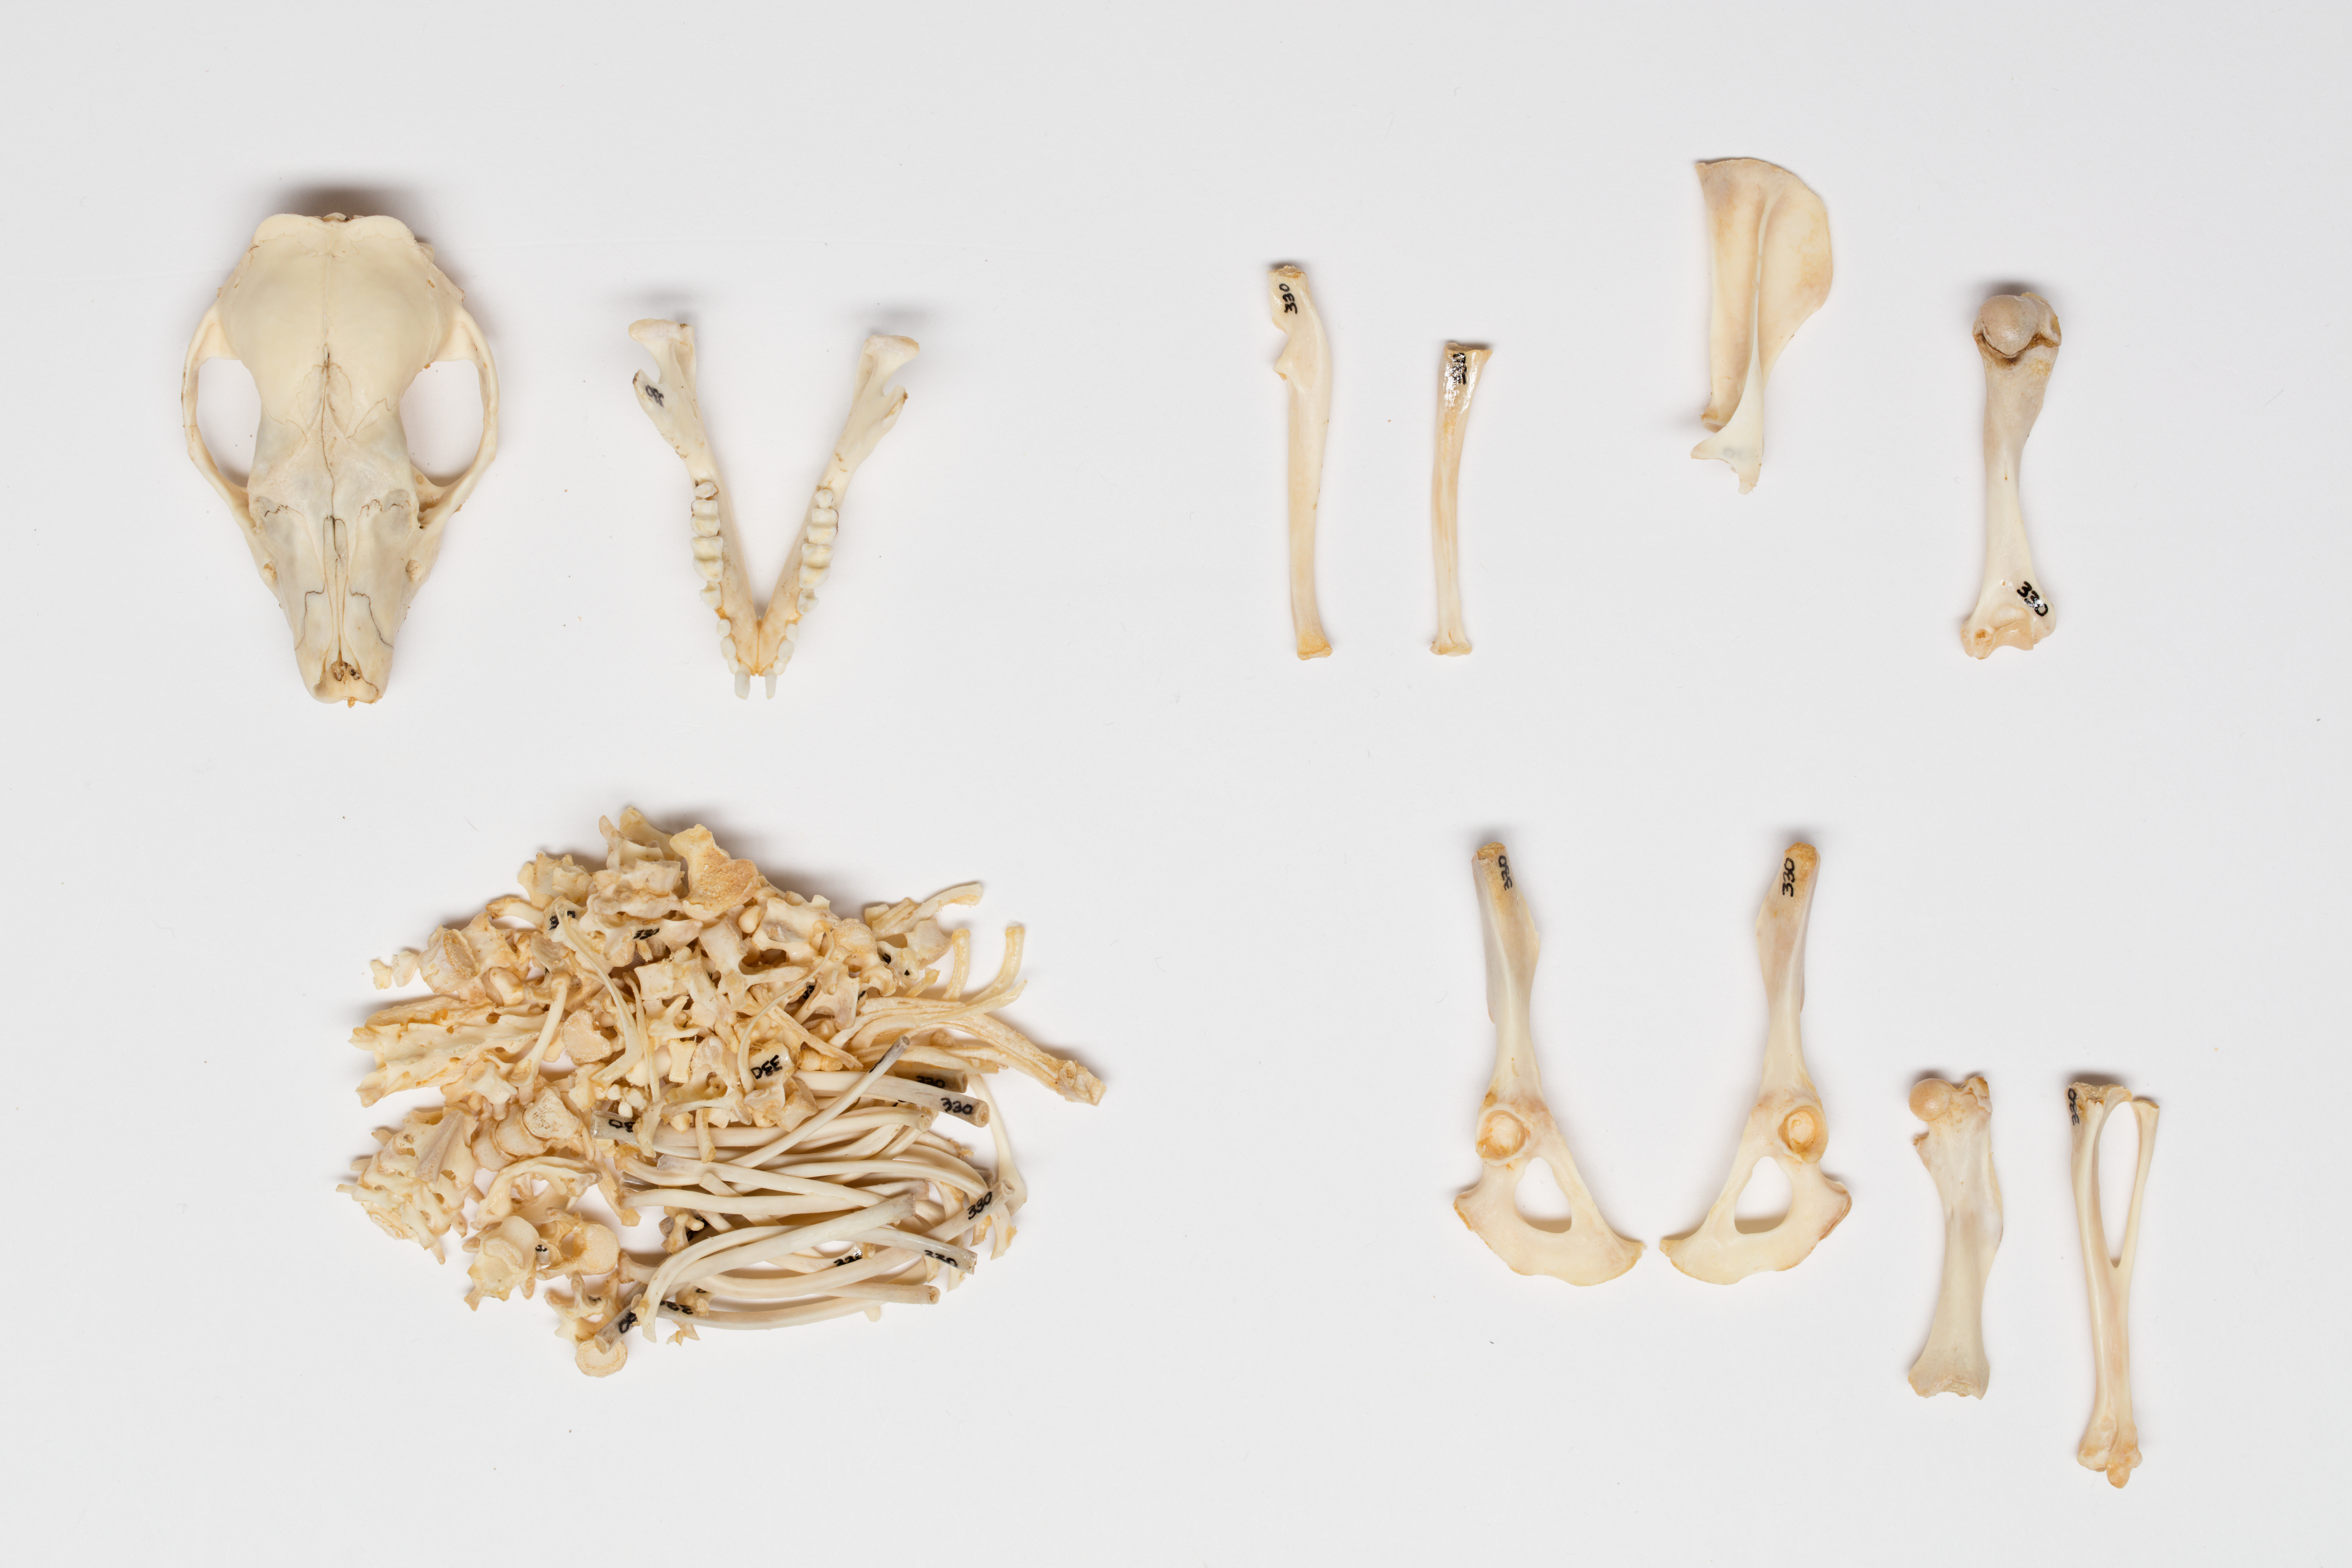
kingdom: Animalia
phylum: Chordata
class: Mammalia
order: Erinaceomorpha
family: Erinaceidae
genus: Erinaceus
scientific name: Erinaceus europaeus
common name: West european hedgehog
